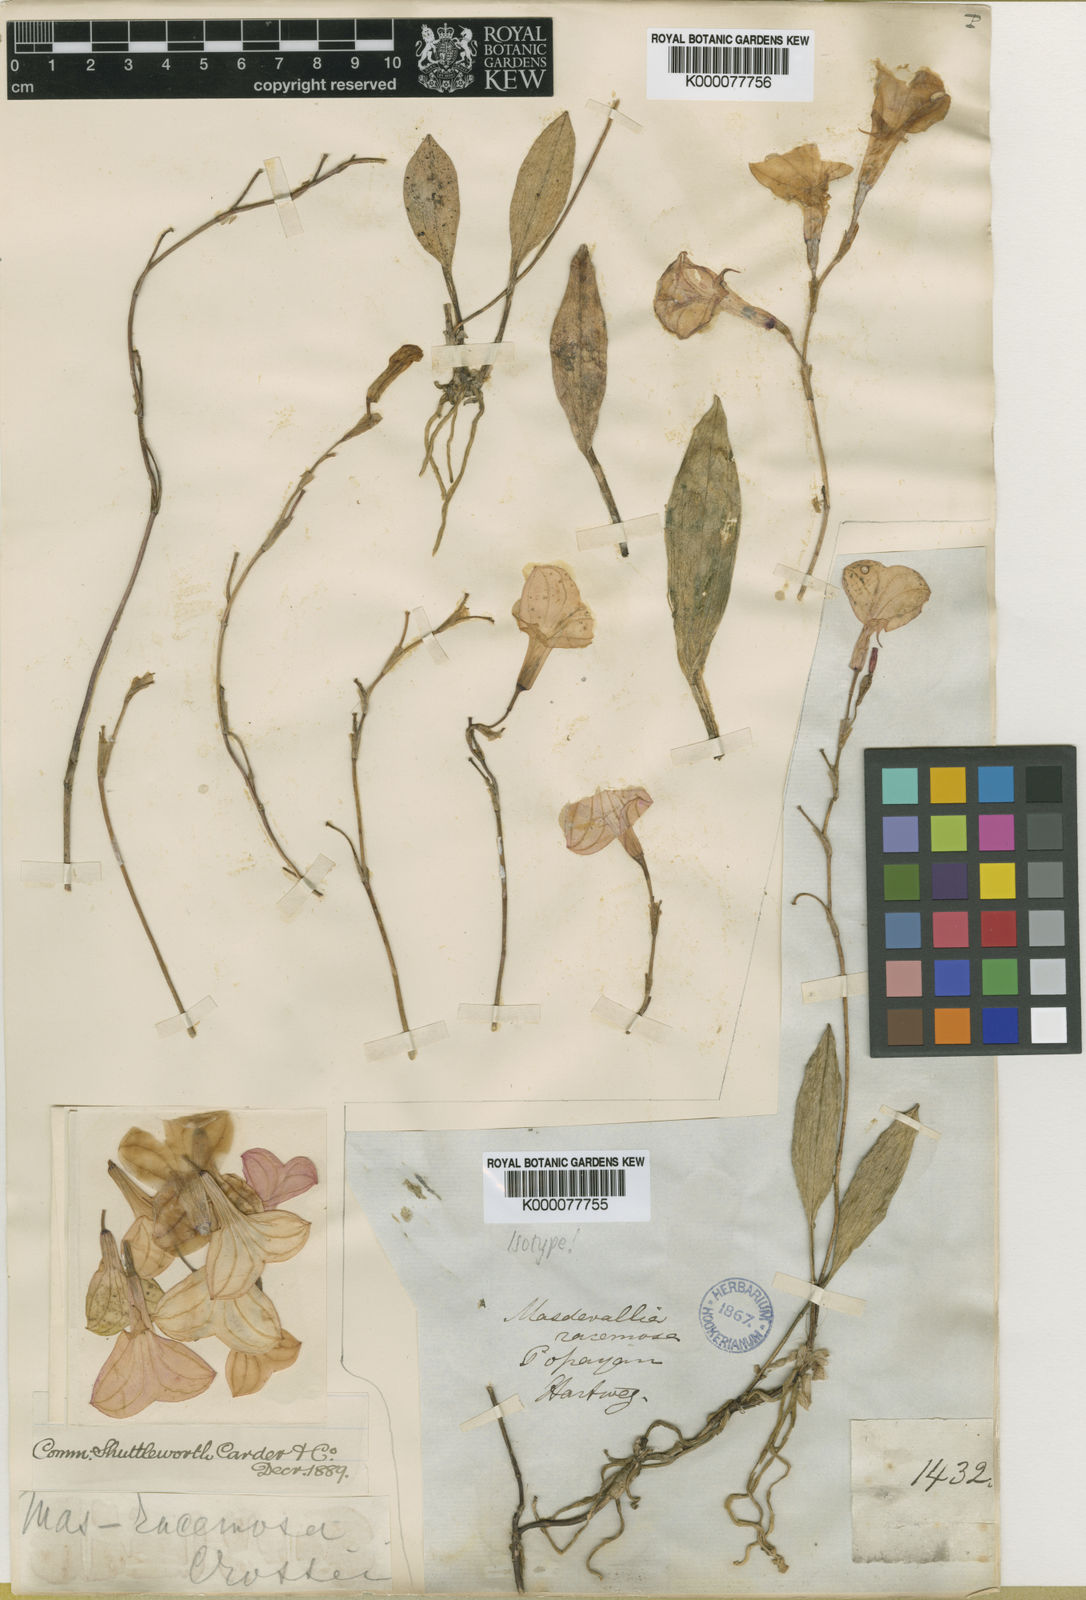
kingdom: Plantae
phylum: Tracheophyta
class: Liliopsida
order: Asparagales
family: Orchidaceae
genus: Masdevallia
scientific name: Masdevallia racemosa
